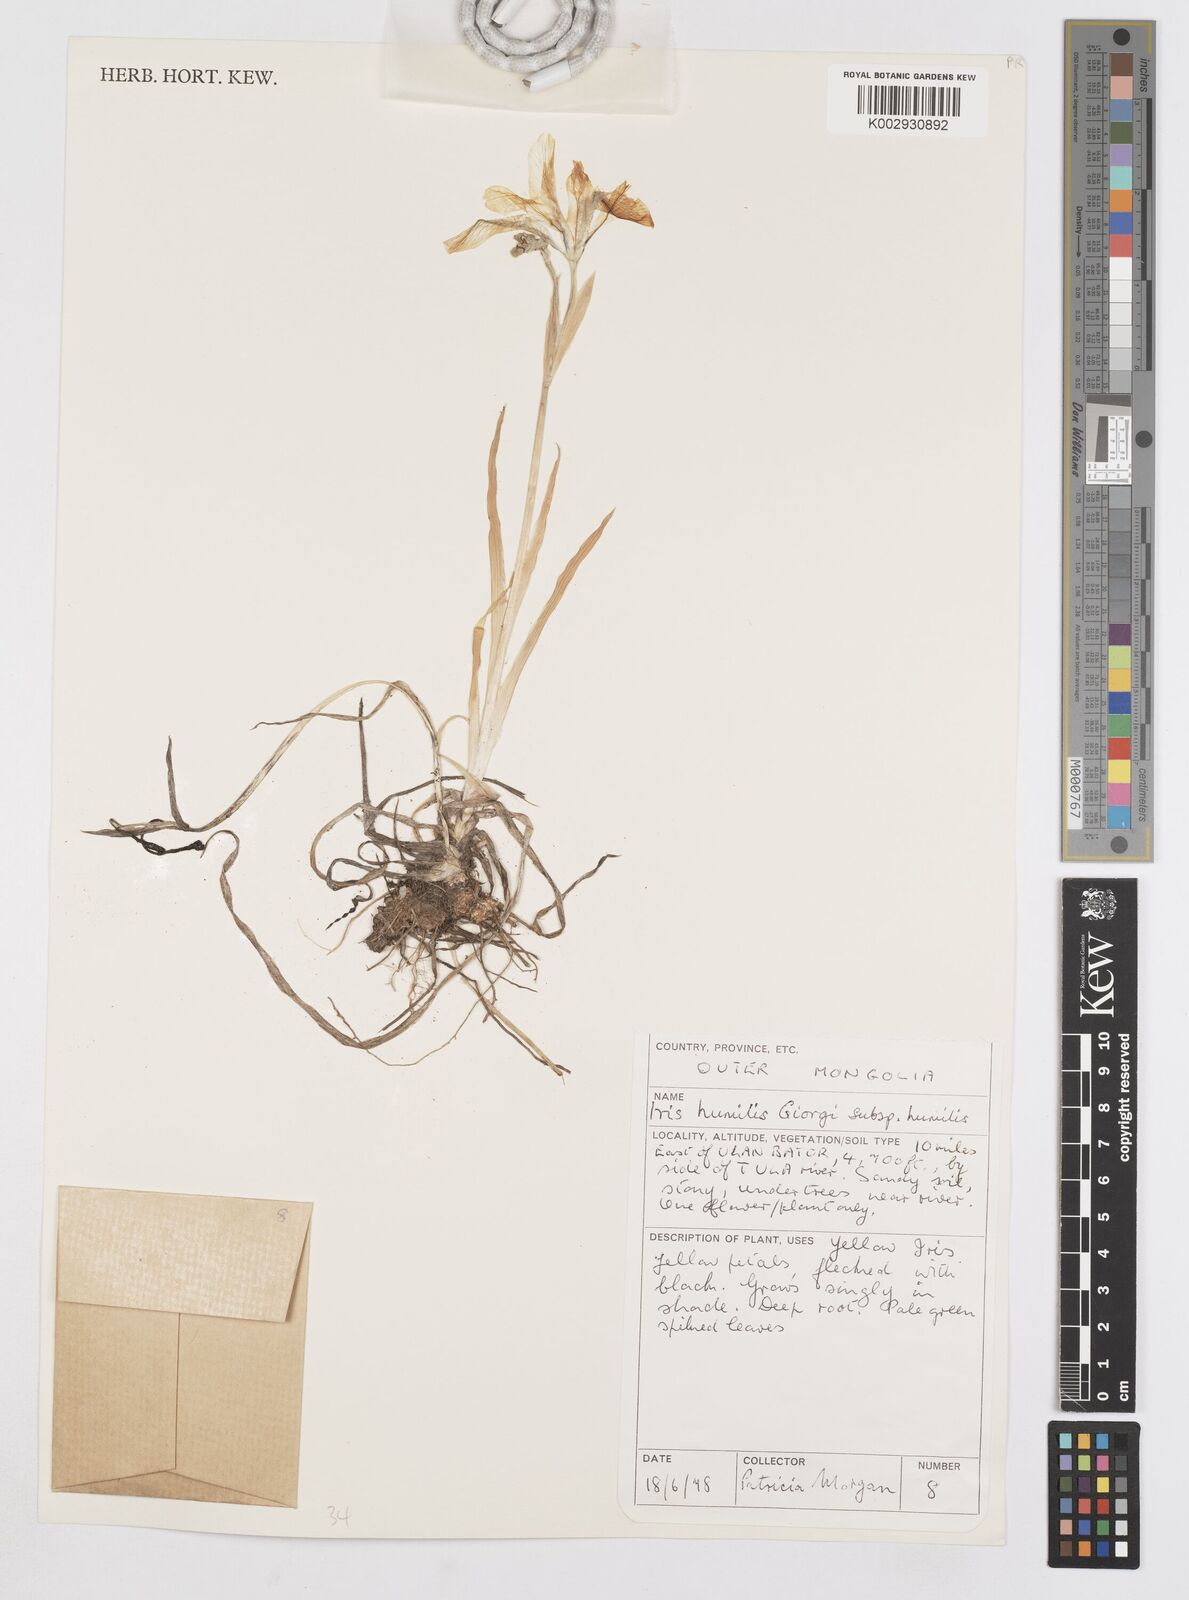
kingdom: Plantae
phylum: Tracheophyta
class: Liliopsida
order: Asparagales
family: Iridaceae
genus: Iris
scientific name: Iris humilis
